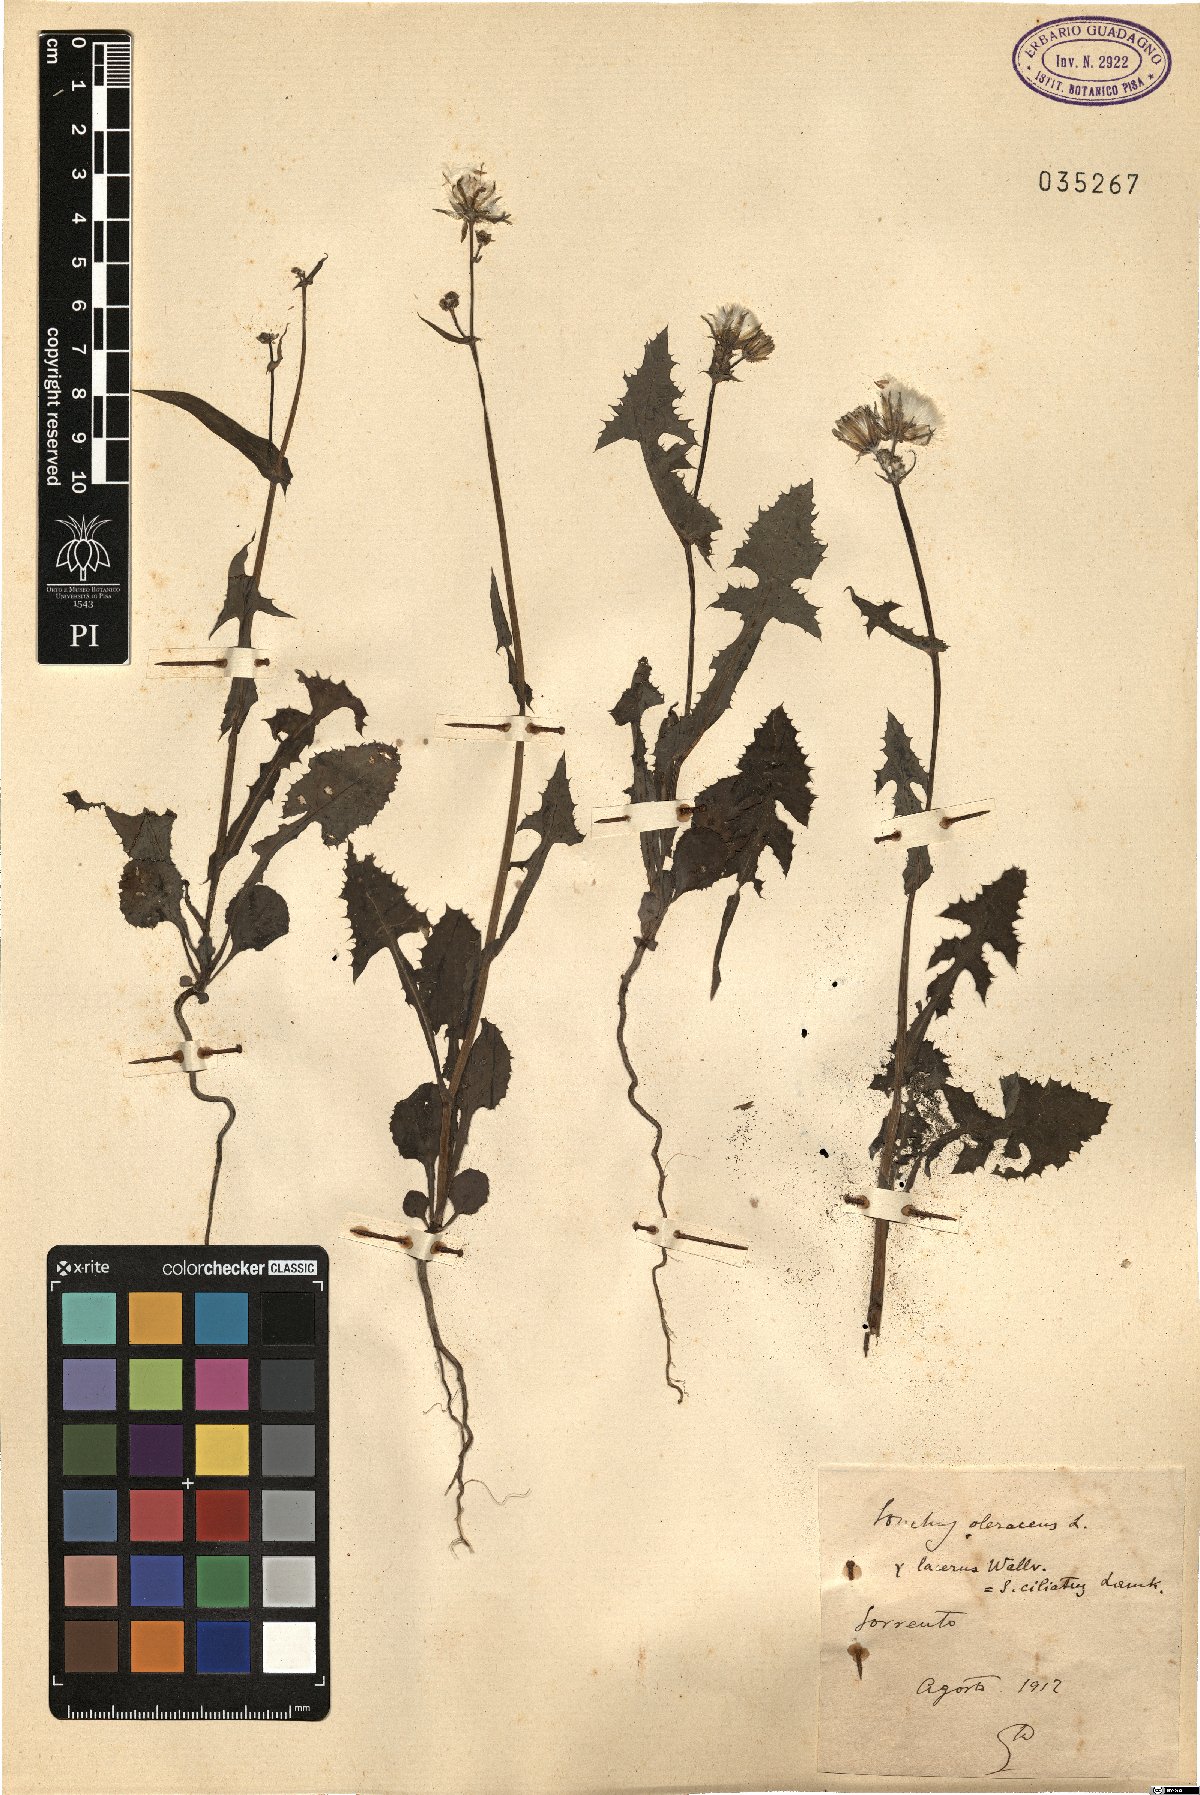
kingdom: Plantae
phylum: Tracheophyta
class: Magnoliopsida
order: Asterales
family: Asteraceae
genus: Sonchus
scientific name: Sonchus oleraceus
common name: Common sowthistle
